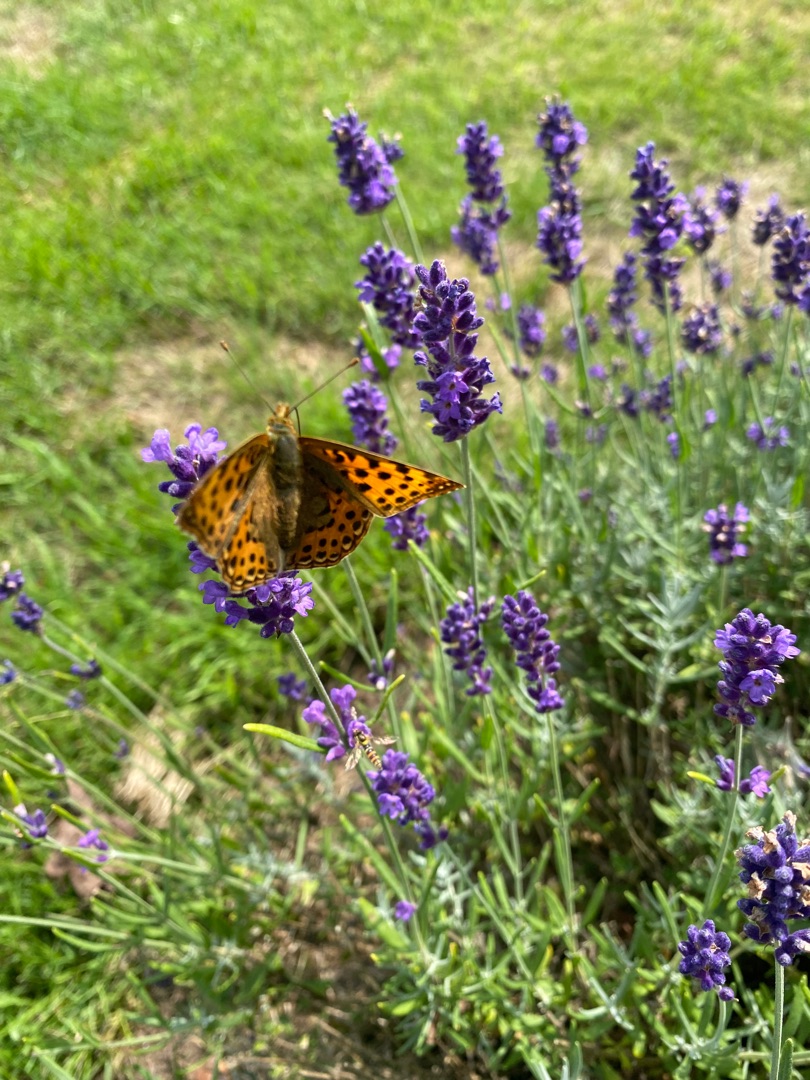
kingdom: Animalia
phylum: Arthropoda
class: Insecta
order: Lepidoptera
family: Nymphalidae
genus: Issoria
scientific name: Issoria lathonia
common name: Storplettet perlemorsommerfugl
